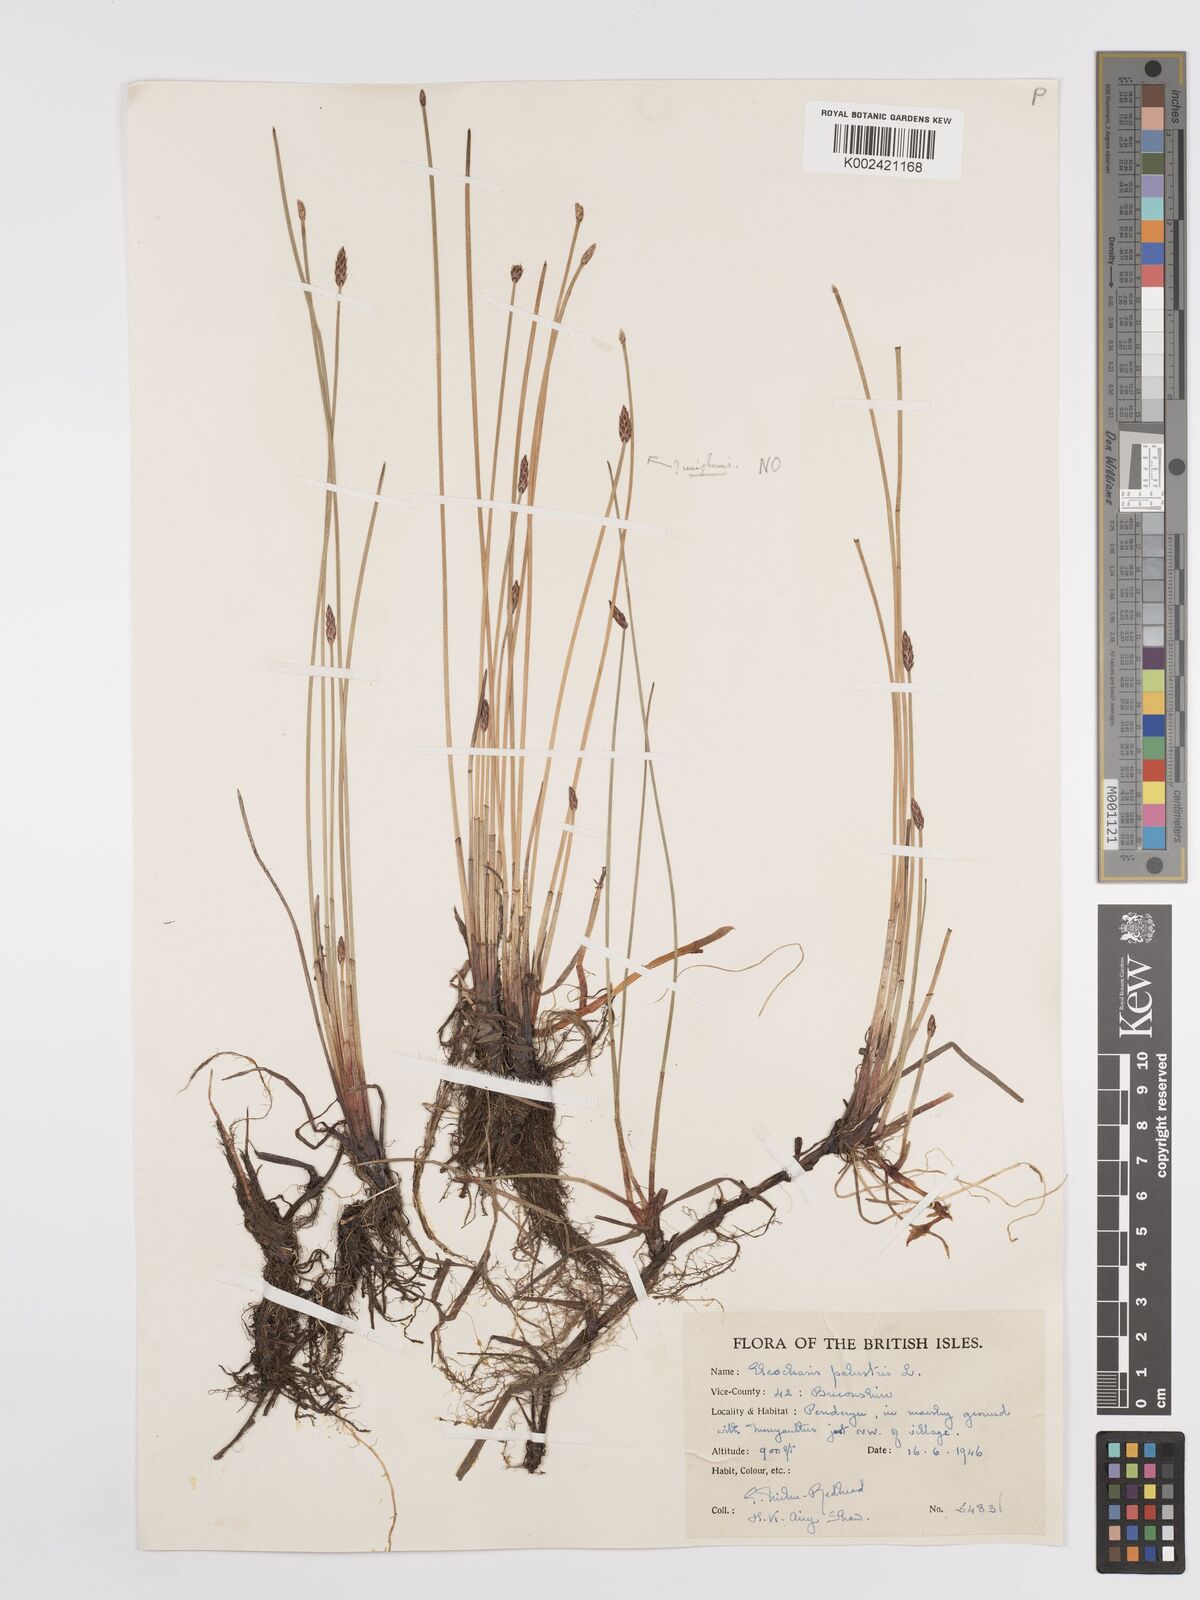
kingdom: Plantae
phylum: Tracheophyta
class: Liliopsida
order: Poales
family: Cyperaceae
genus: Eleocharis
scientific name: Eleocharis palustris
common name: Common spike-rush
